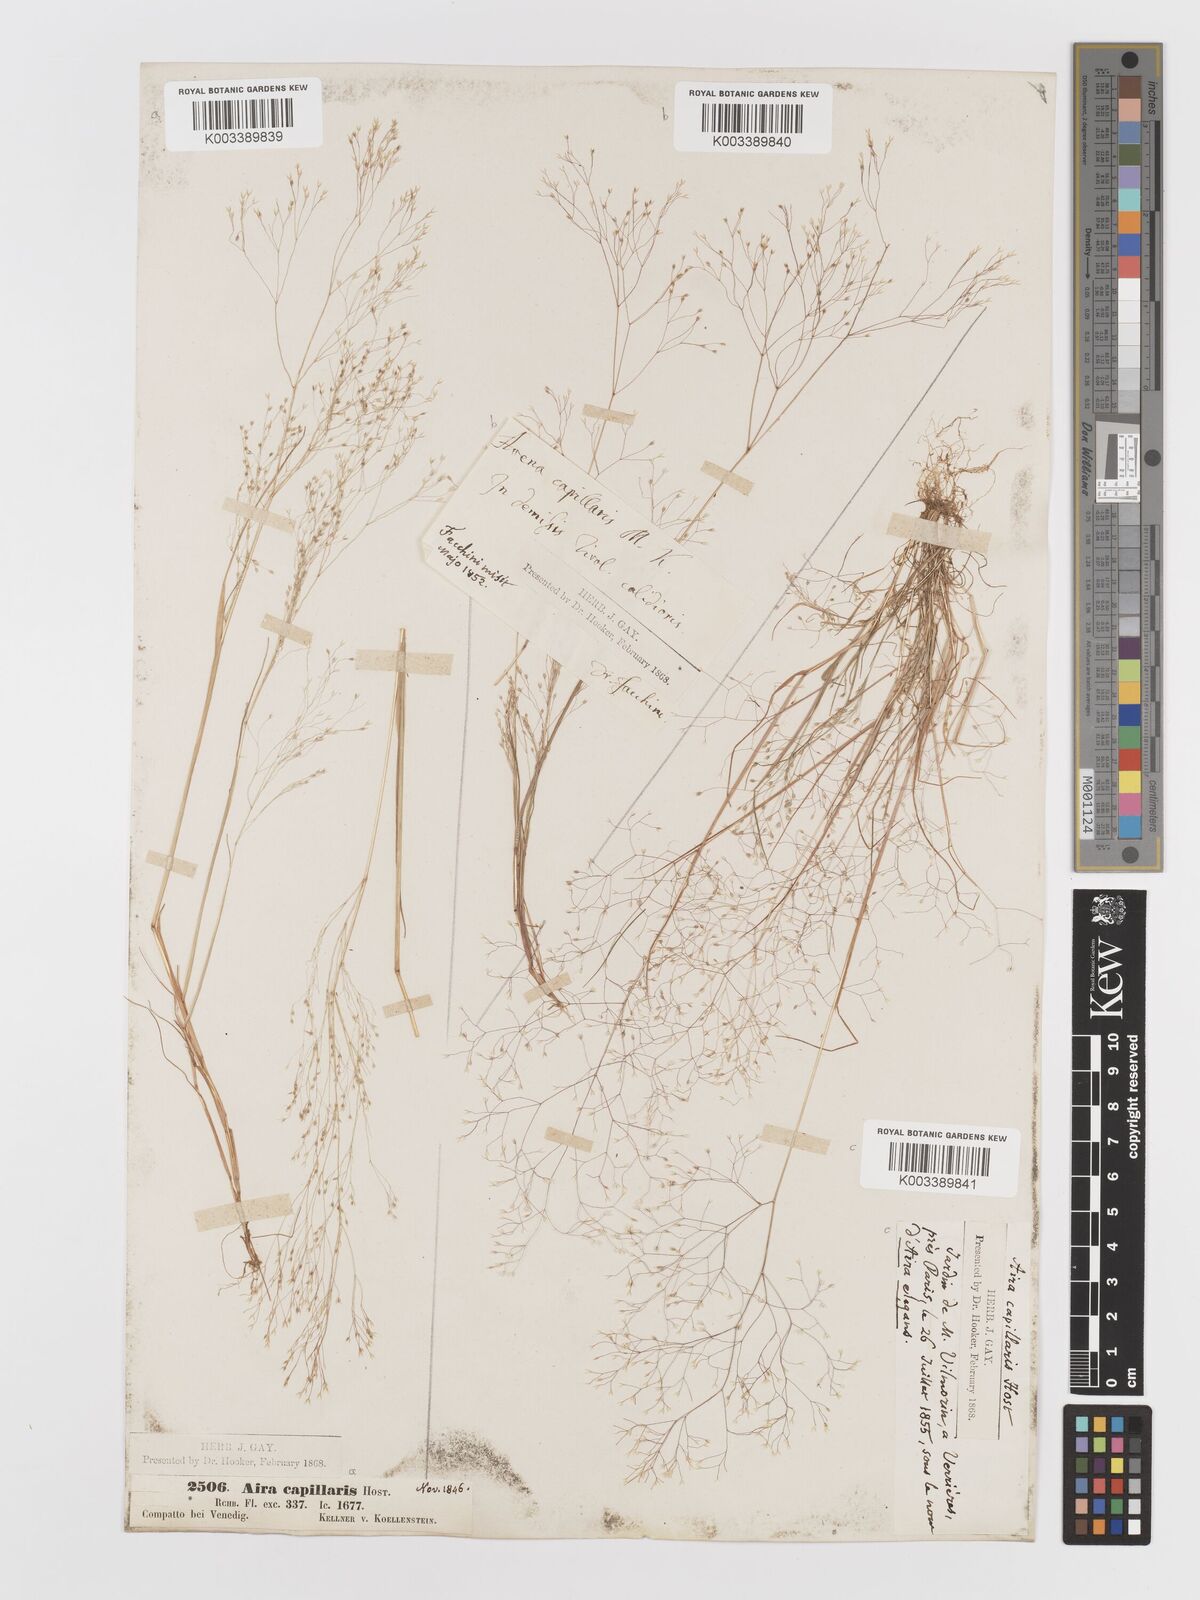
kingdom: Plantae
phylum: Tracheophyta
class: Liliopsida
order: Poales
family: Poaceae
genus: Aira
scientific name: Aira elegans
